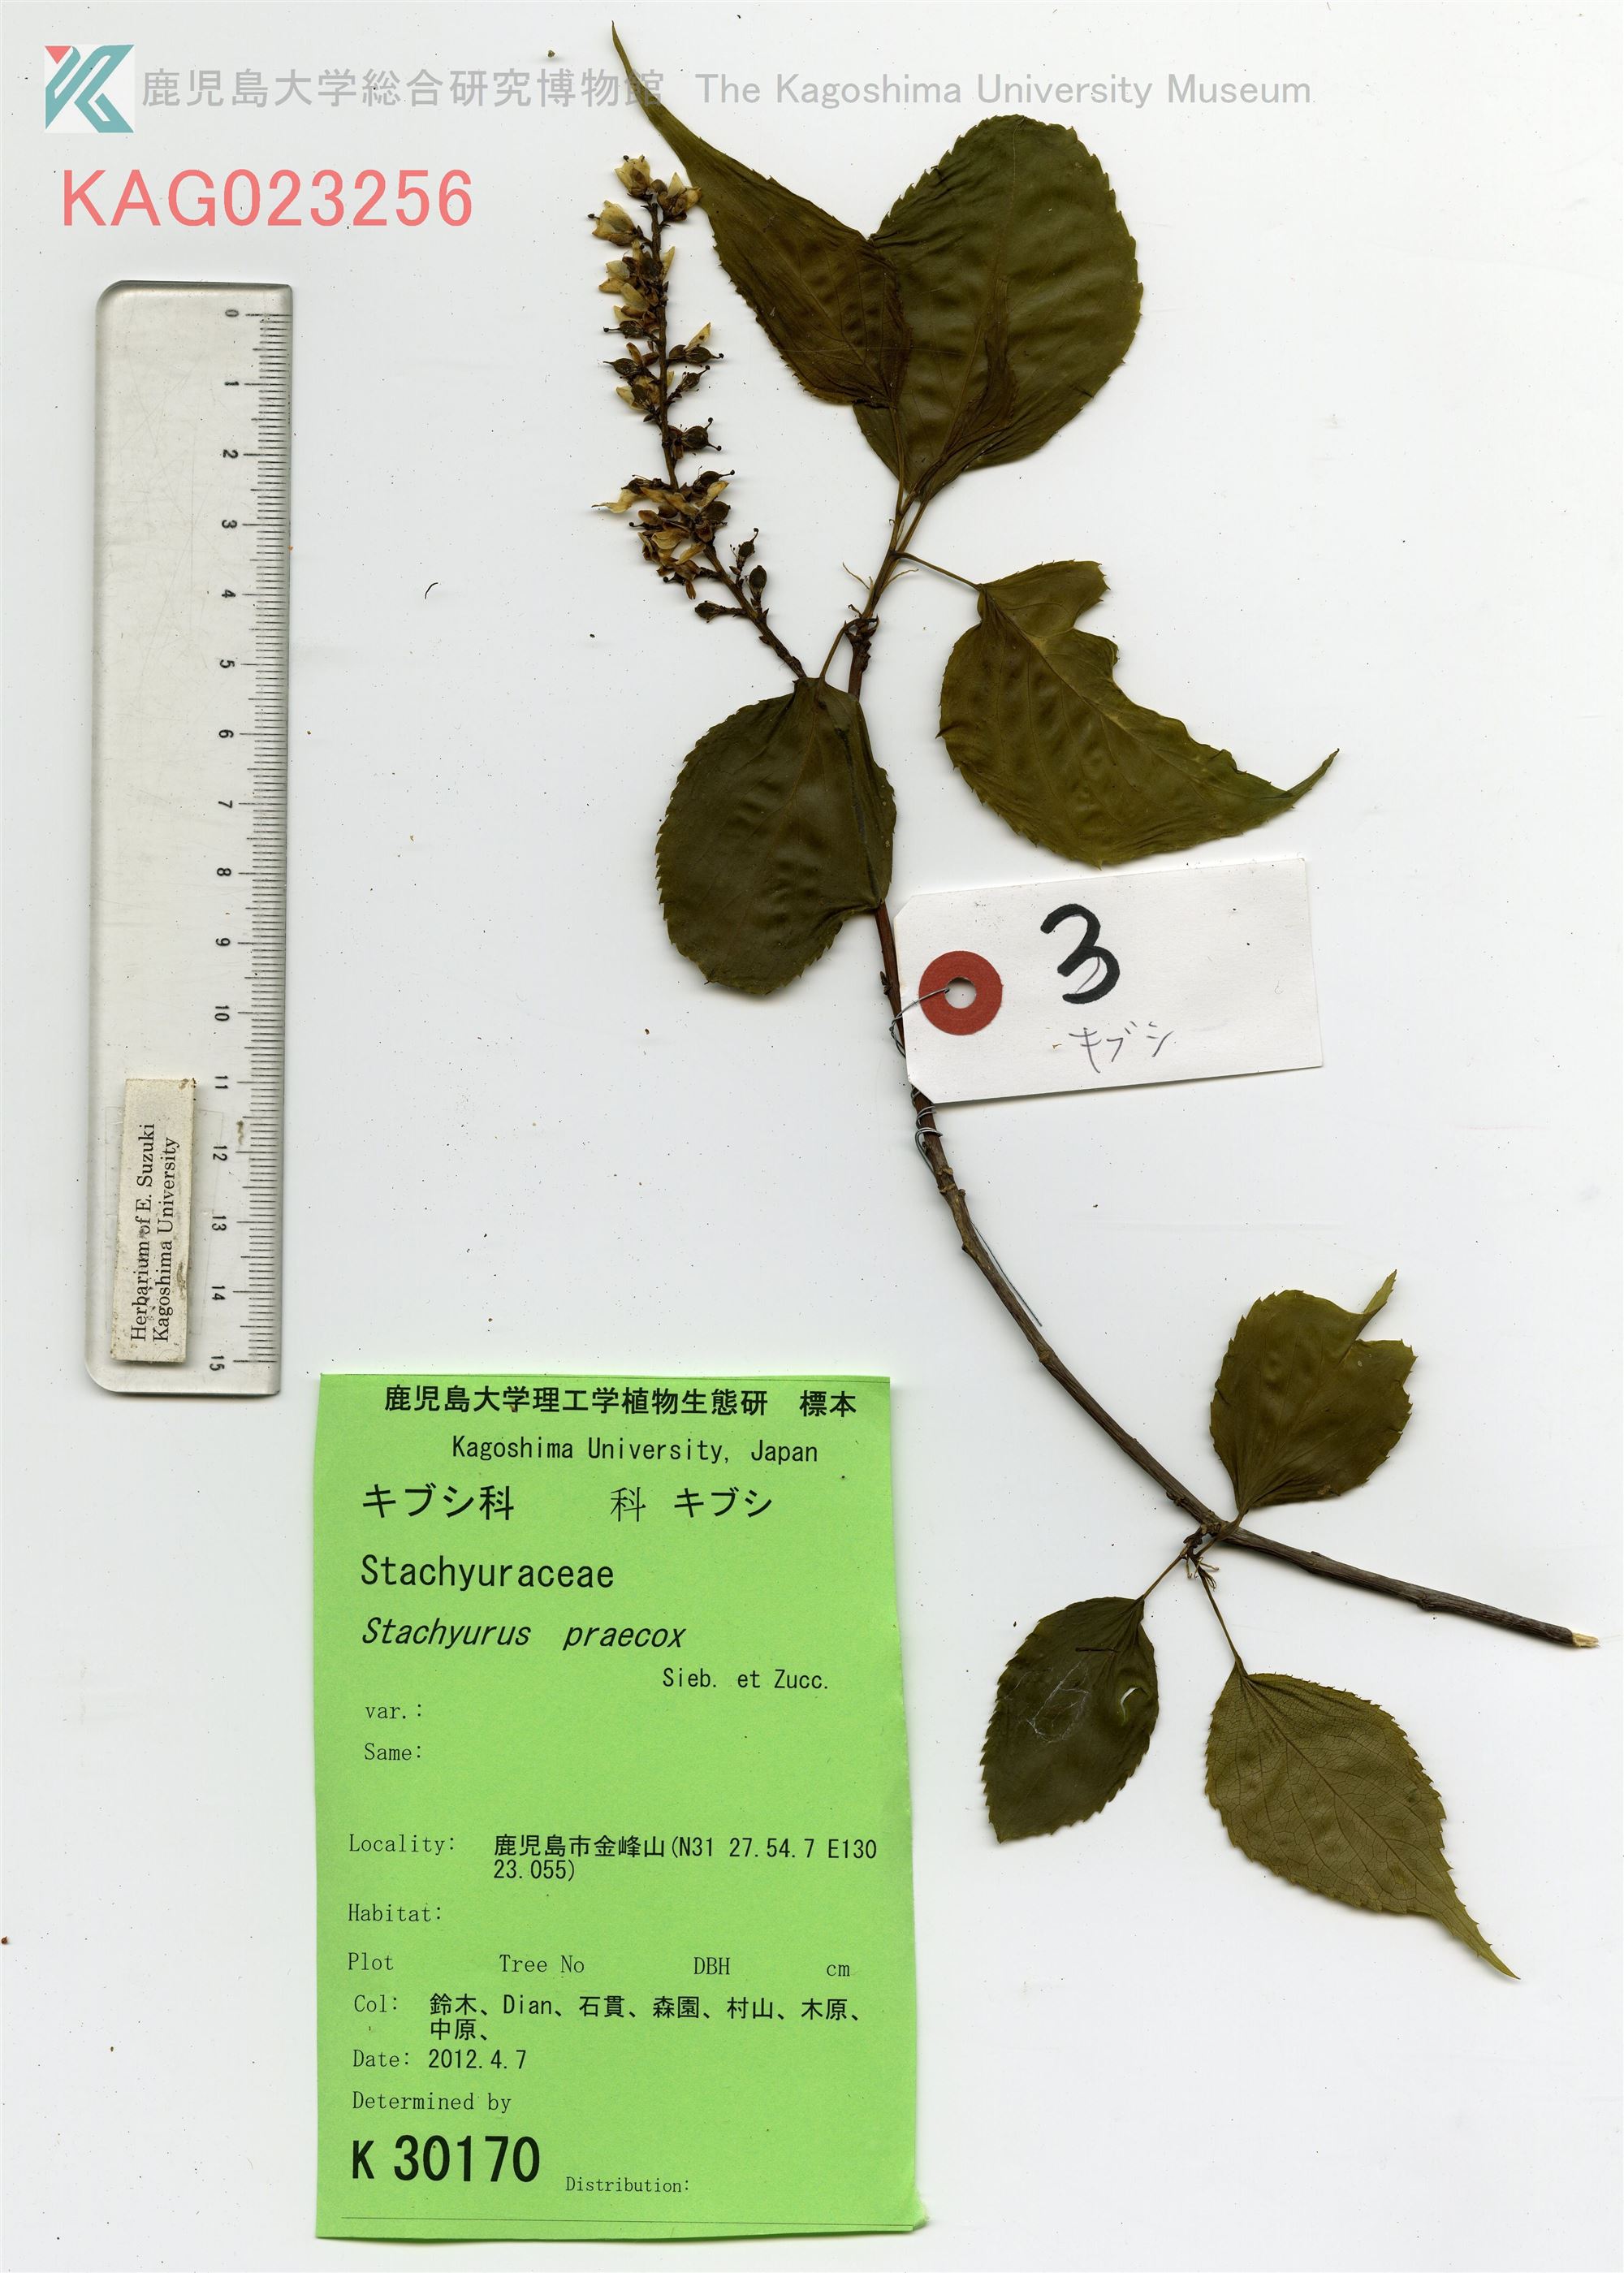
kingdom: Plantae
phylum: Tracheophyta
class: Magnoliopsida
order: Crossosomatales
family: Stachyuraceae
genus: Stachyurus
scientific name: Stachyurus praecox
